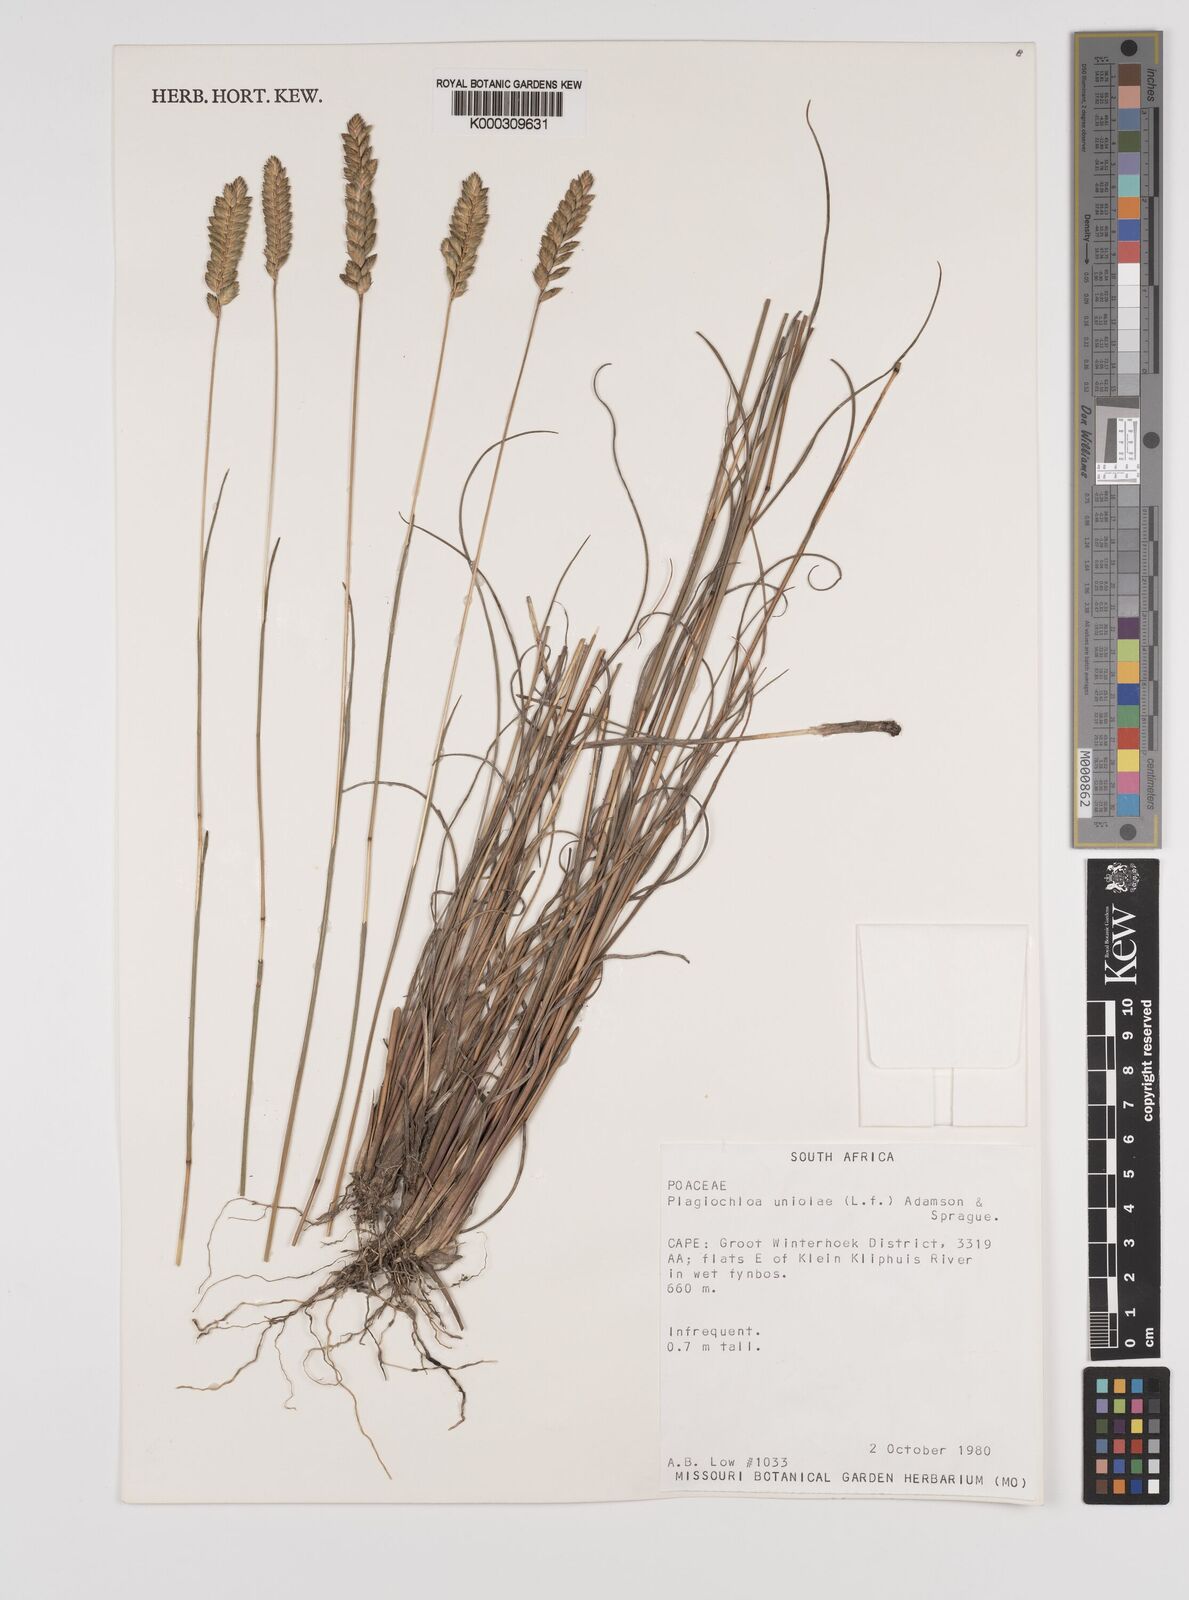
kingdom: Plantae
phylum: Tracheophyta
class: Liliopsida
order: Poales
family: Poaceae
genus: Tribolium
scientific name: Tribolium uniolae
